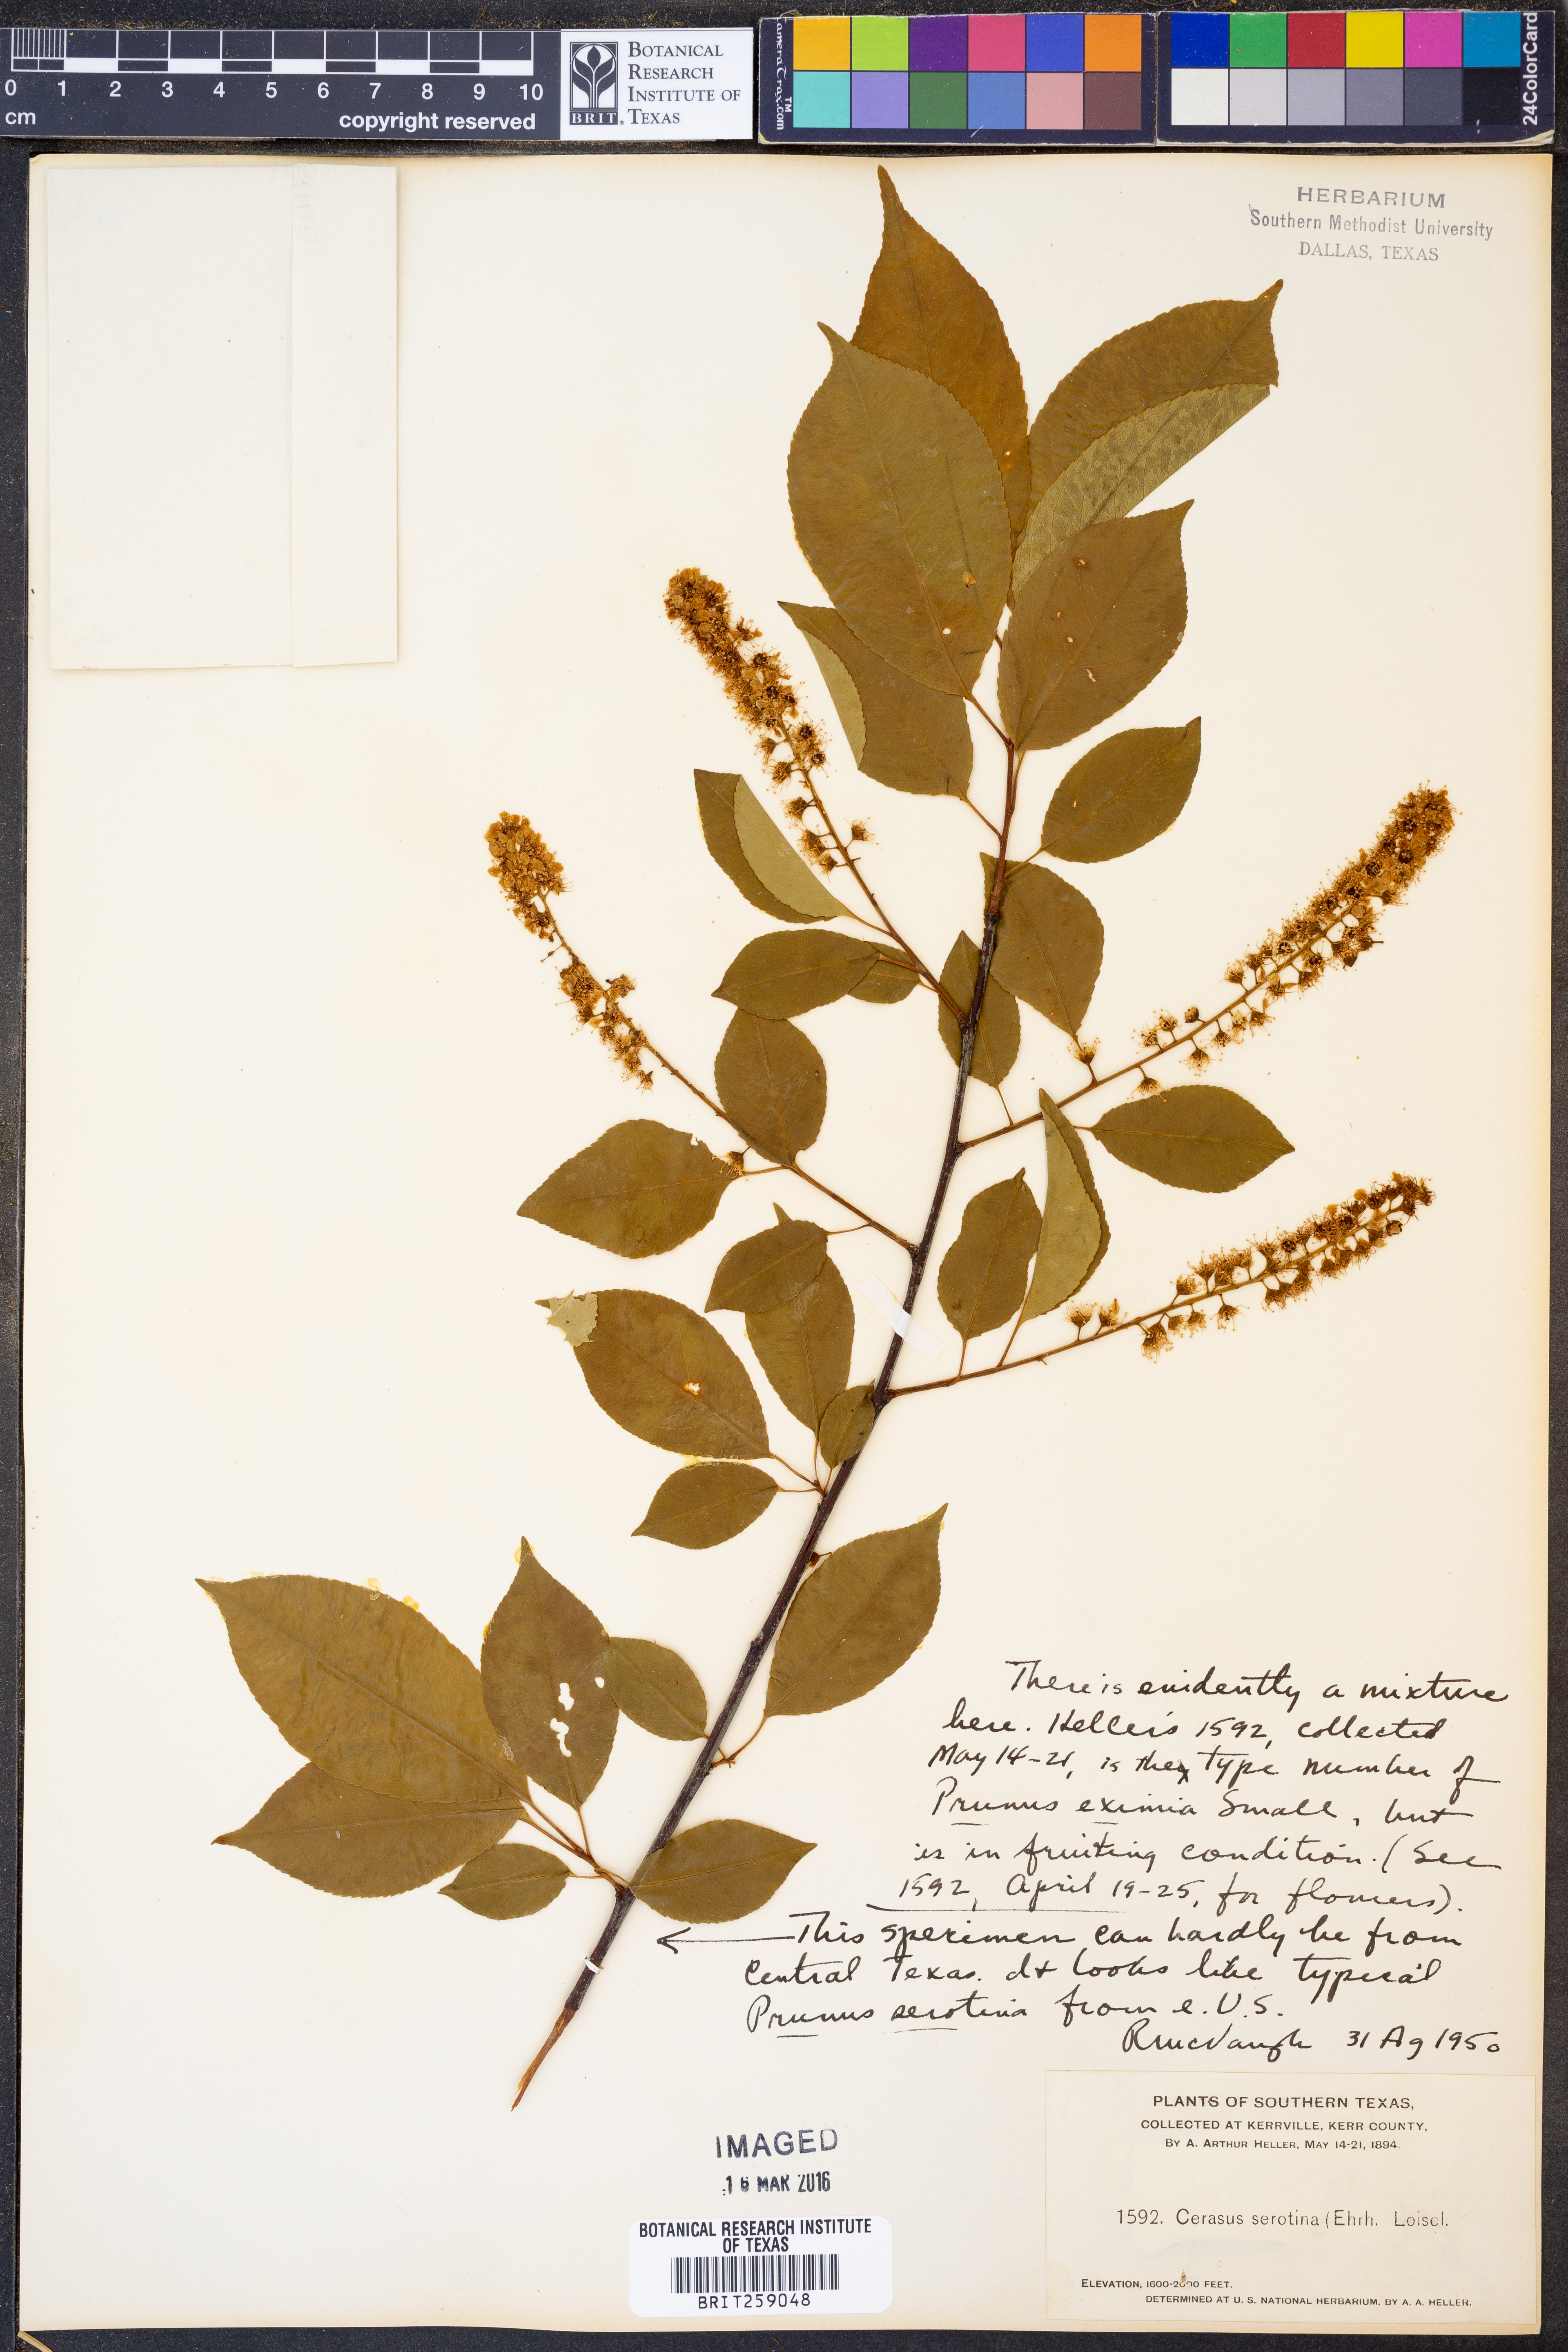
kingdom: Plantae
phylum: Tracheophyta
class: Magnoliopsida
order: Rosales
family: Rosaceae
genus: Prunus
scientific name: Prunus serotina
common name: Black cherry
